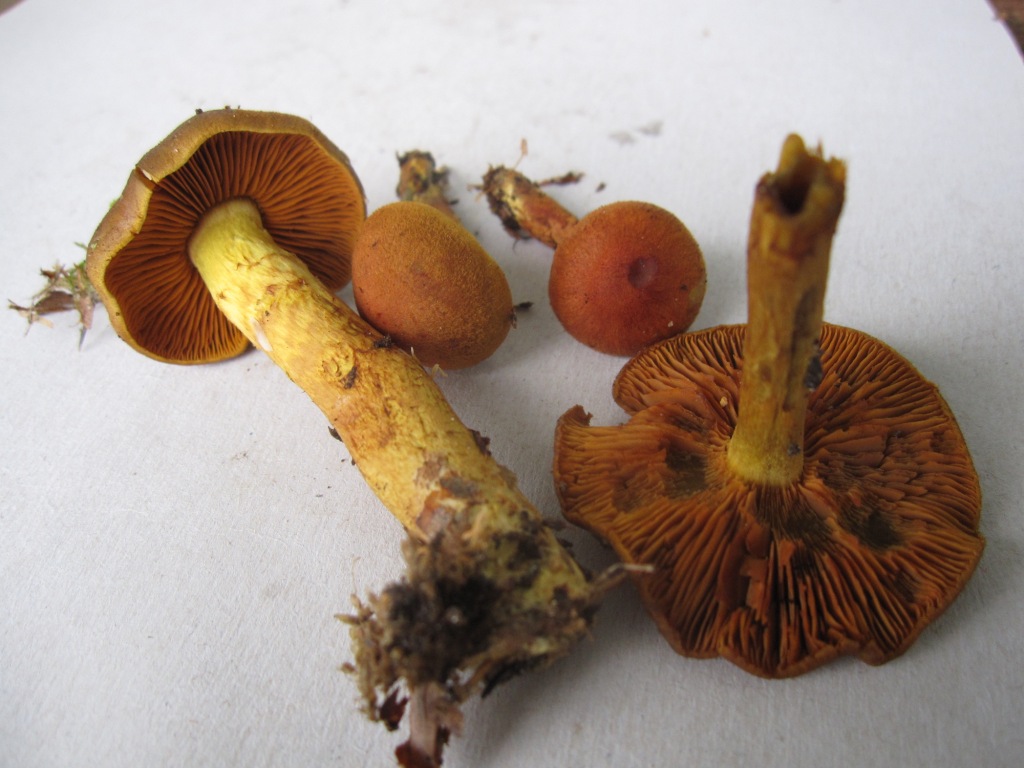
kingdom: Fungi
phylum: Basidiomycota
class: Agaricomycetes
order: Agaricales
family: Cortinariaceae
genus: Cortinarius
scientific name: Cortinarius malicorius
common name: grønkødet slørhat
